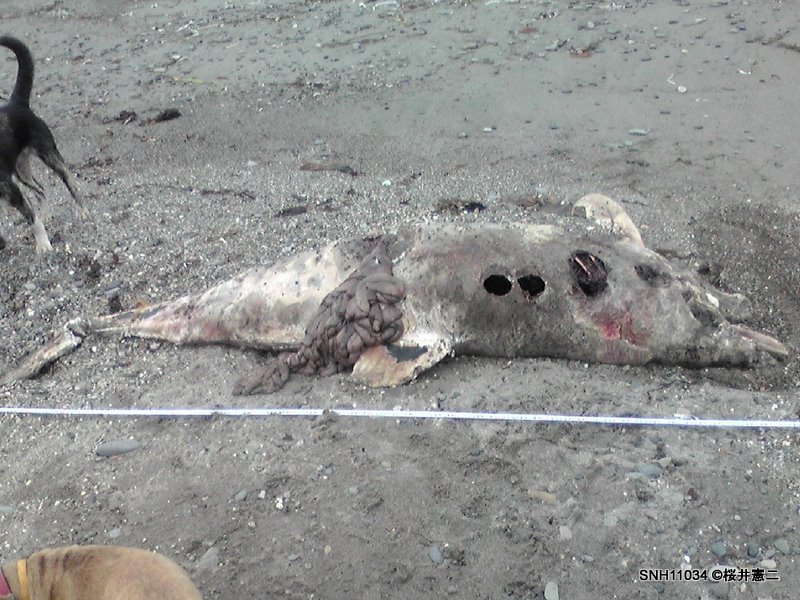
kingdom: Animalia
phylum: Chordata
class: Mammalia
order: Cetacea
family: Delphinidae
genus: Lagenorhynchus
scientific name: Lagenorhynchus obliquidens
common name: Pacific white-sided dolphin
